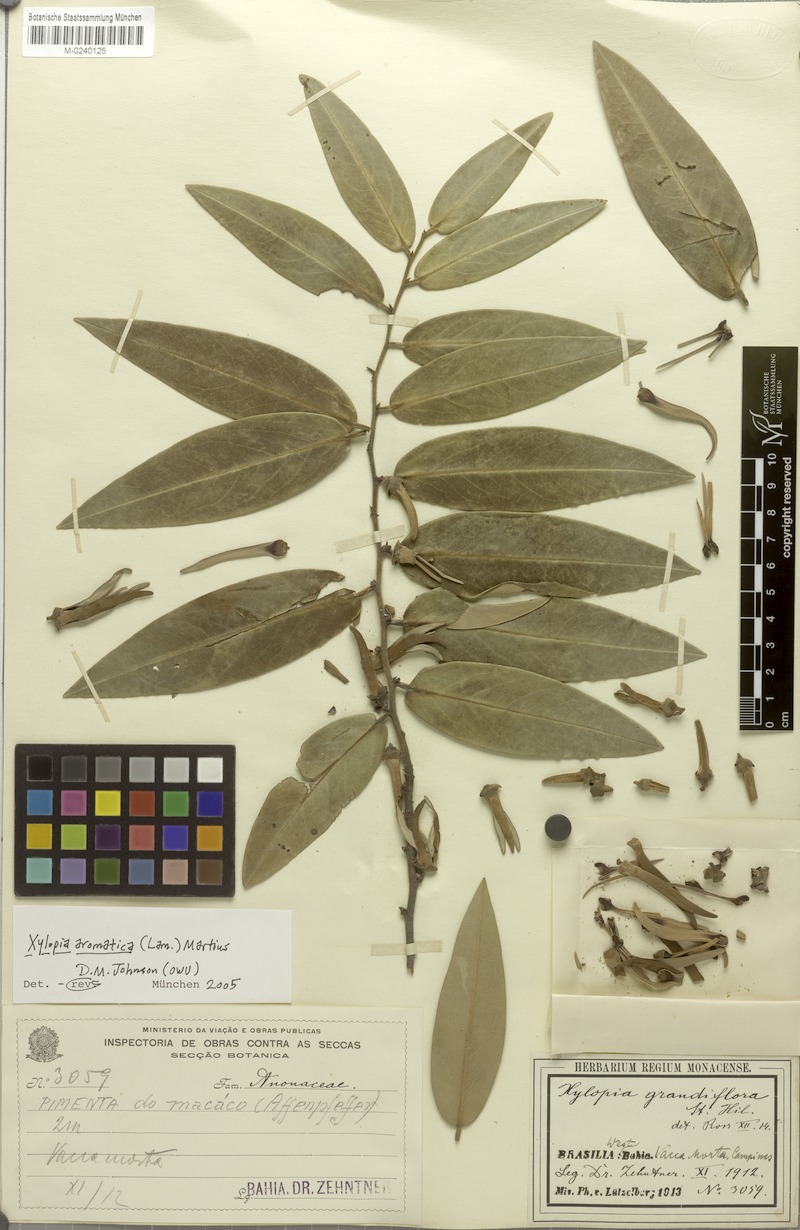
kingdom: Plantae
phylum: Tracheophyta
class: Magnoliopsida
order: Magnoliales
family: Annonaceae
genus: Xylopia
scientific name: Xylopia aromatica
